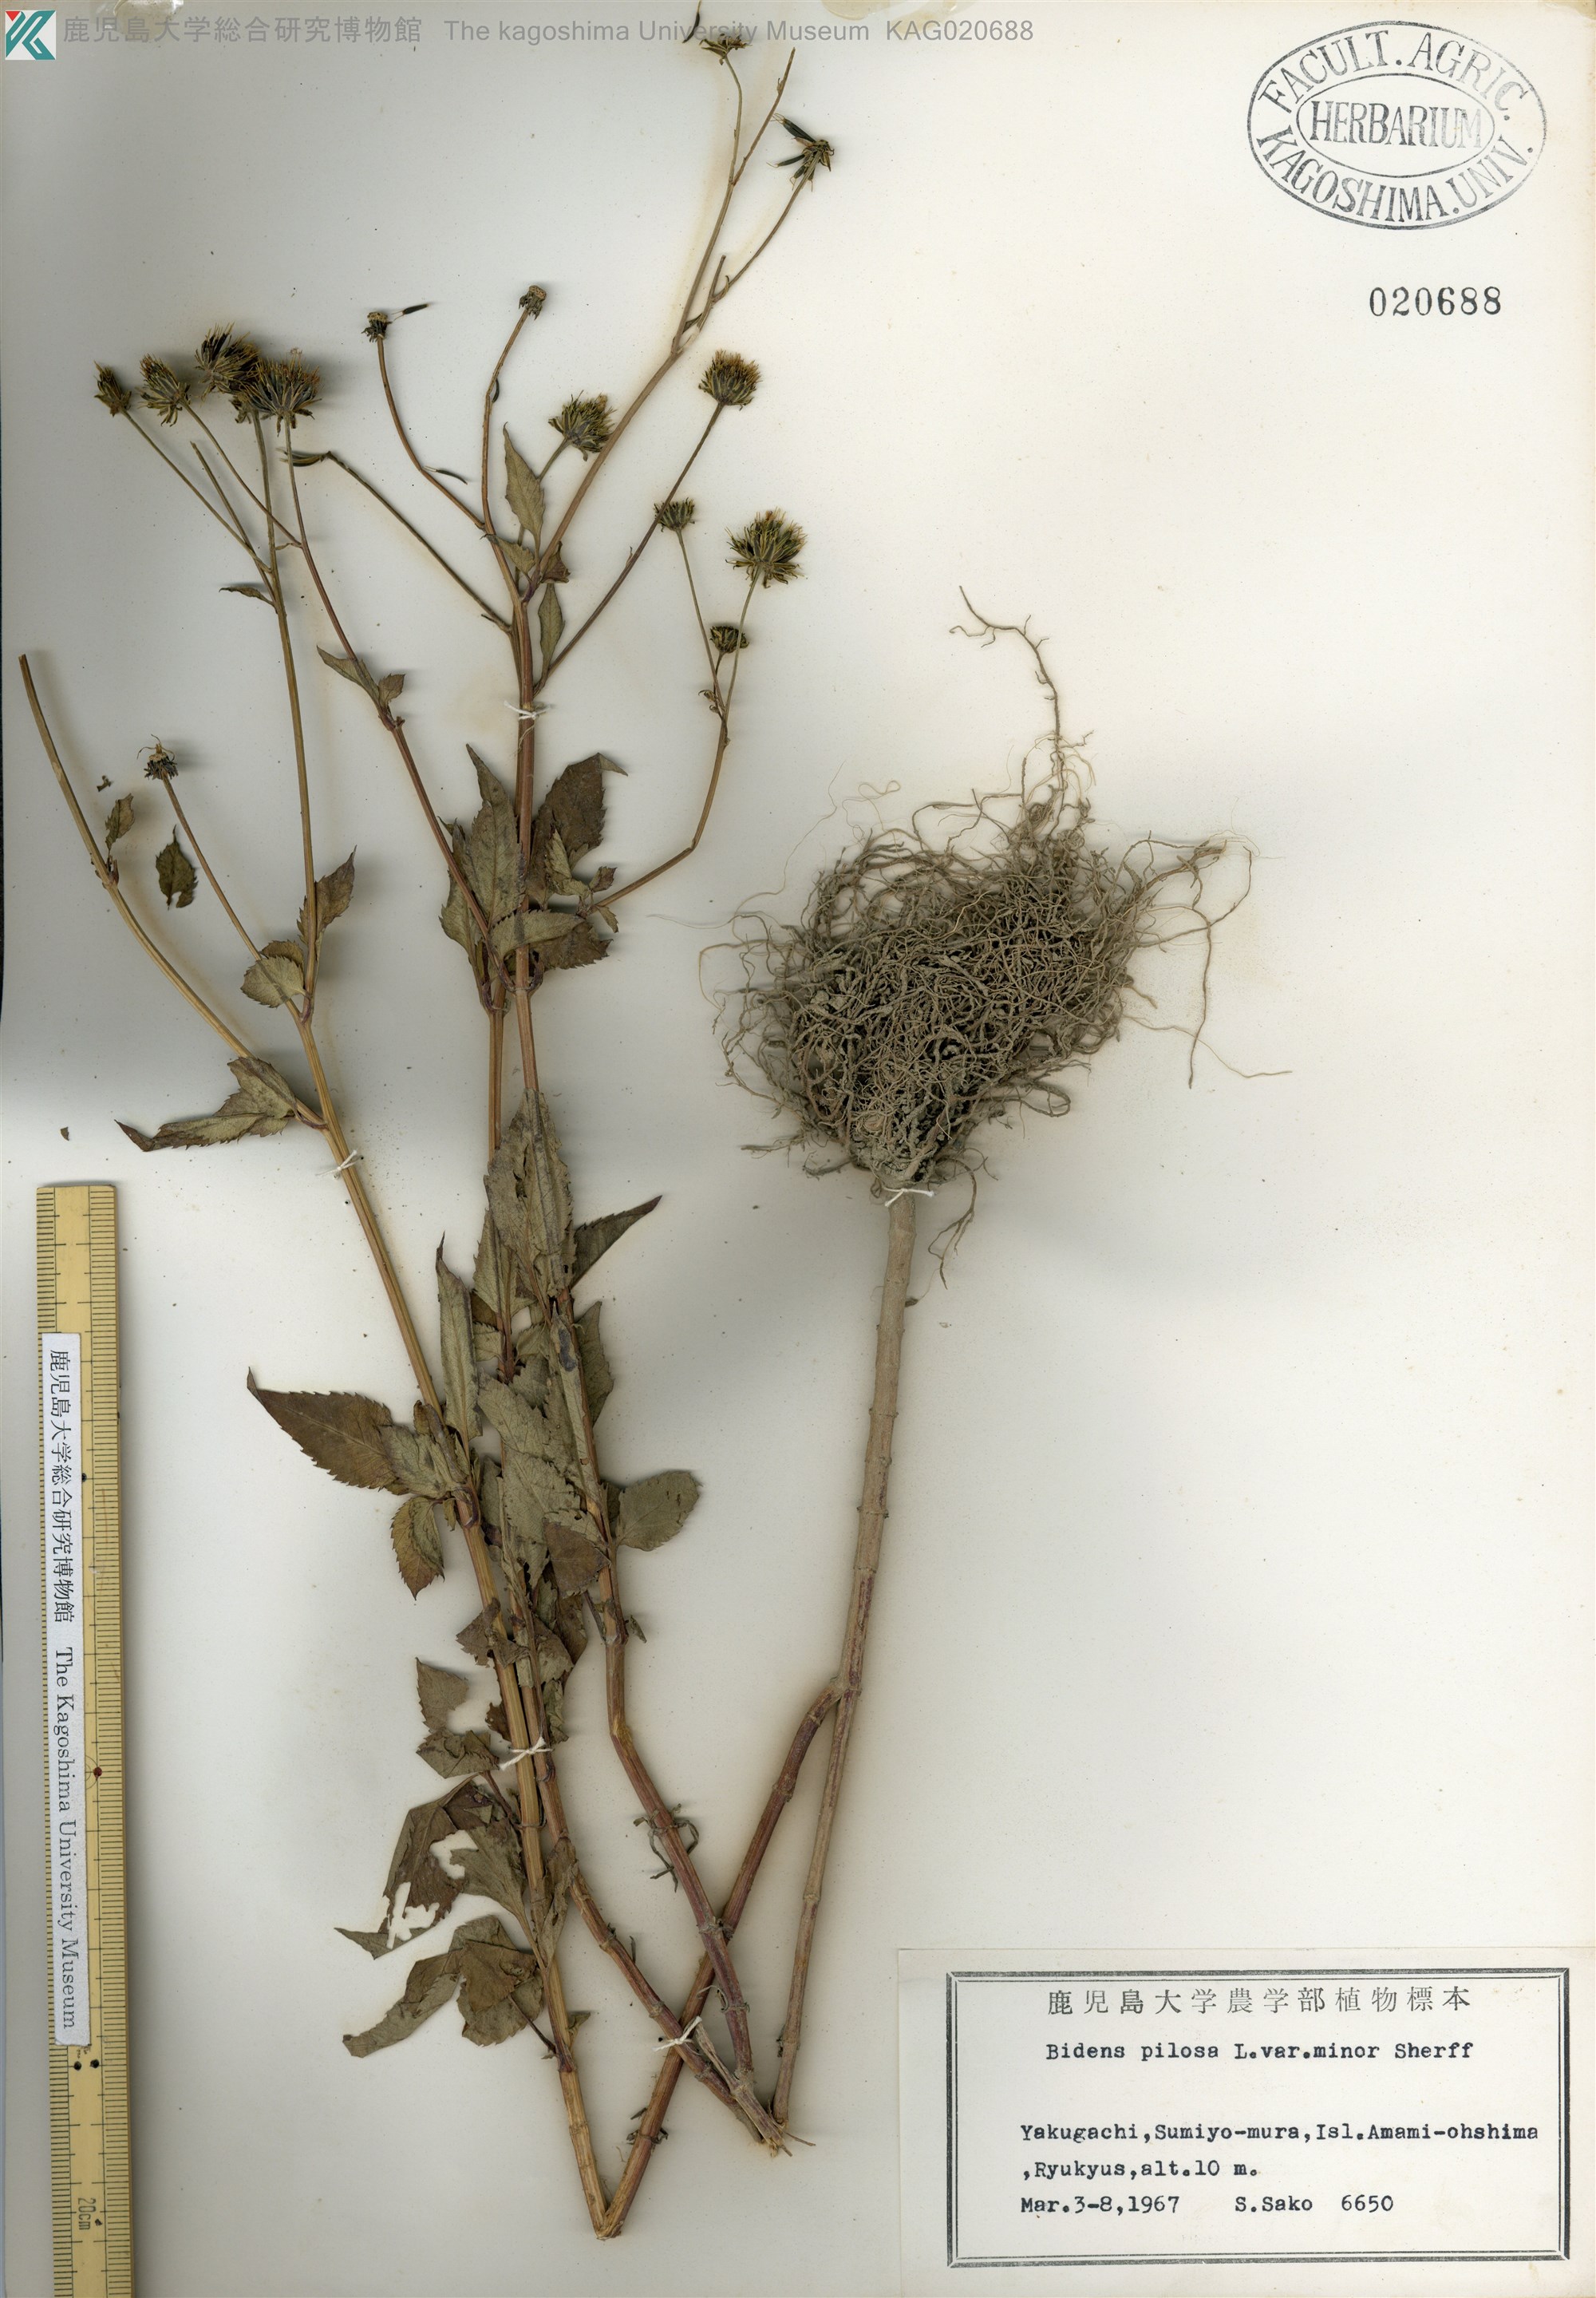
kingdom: Plantae
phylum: Tracheophyta
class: Magnoliopsida
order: Asterales
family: Asteraceae
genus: Bidens
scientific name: Bidens pilosa
